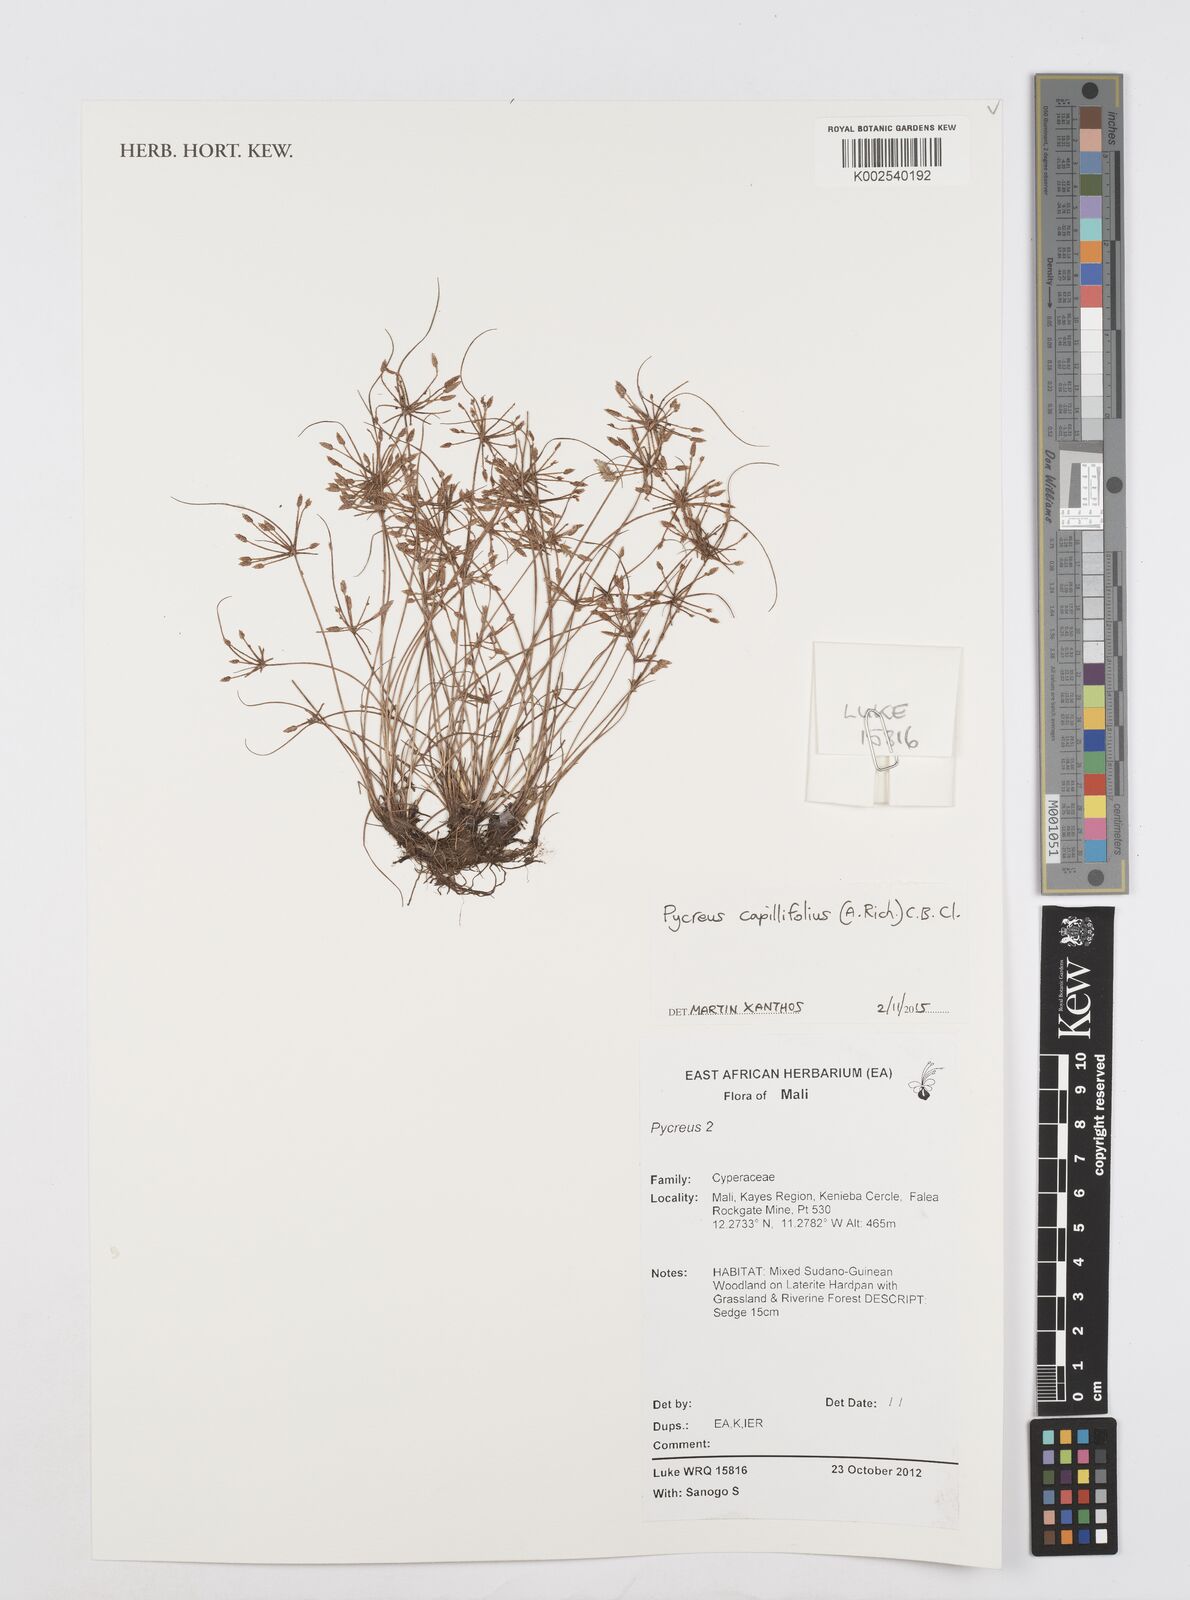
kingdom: Plantae
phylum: Tracheophyta
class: Liliopsida
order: Poales
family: Cyperaceae
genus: Cyperus
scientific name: Cyperus capillifolius
